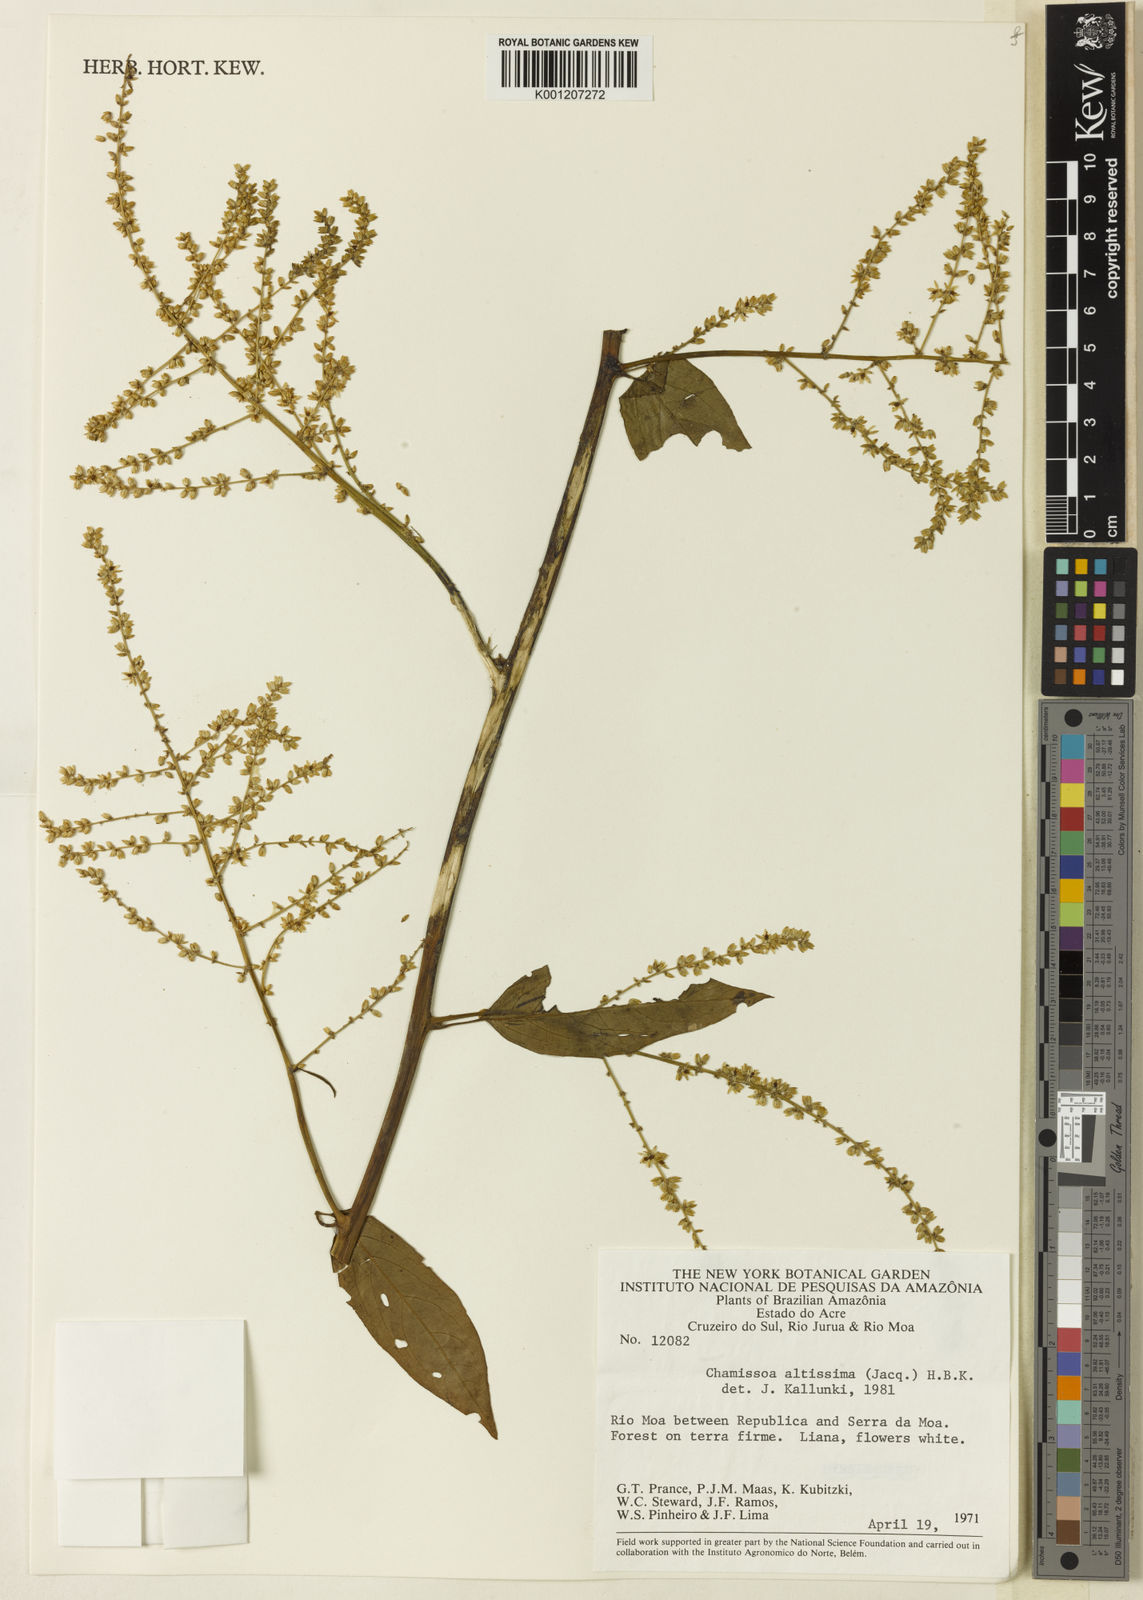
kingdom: Plantae
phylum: Tracheophyta
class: Magnoliopsida
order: Caryophyllales
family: Amaranthaceae
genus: Chamissoa
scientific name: Chamissoa altissima
